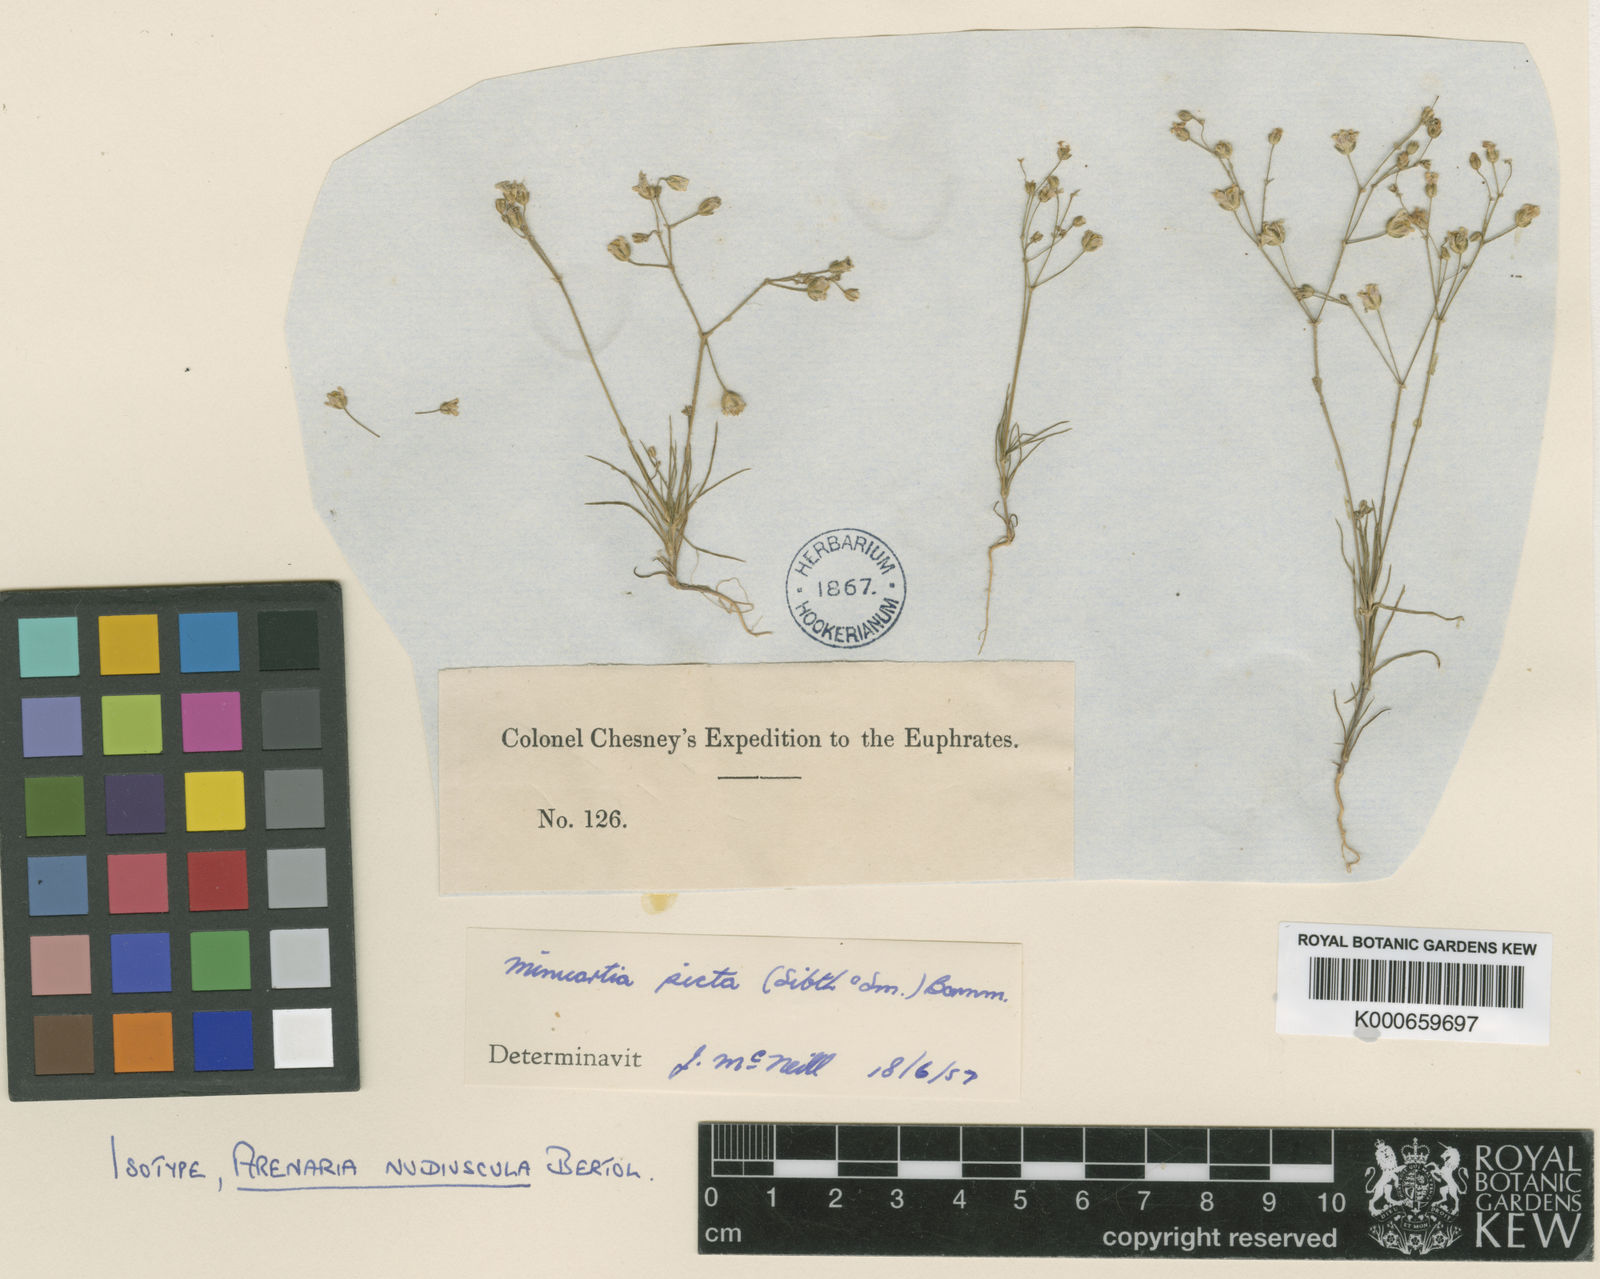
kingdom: Plantae
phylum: Tracheophyta
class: Magnoliopsida
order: Caryophyllales
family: Caryophyllaceae
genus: Eremogone
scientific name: Eremogone picta
